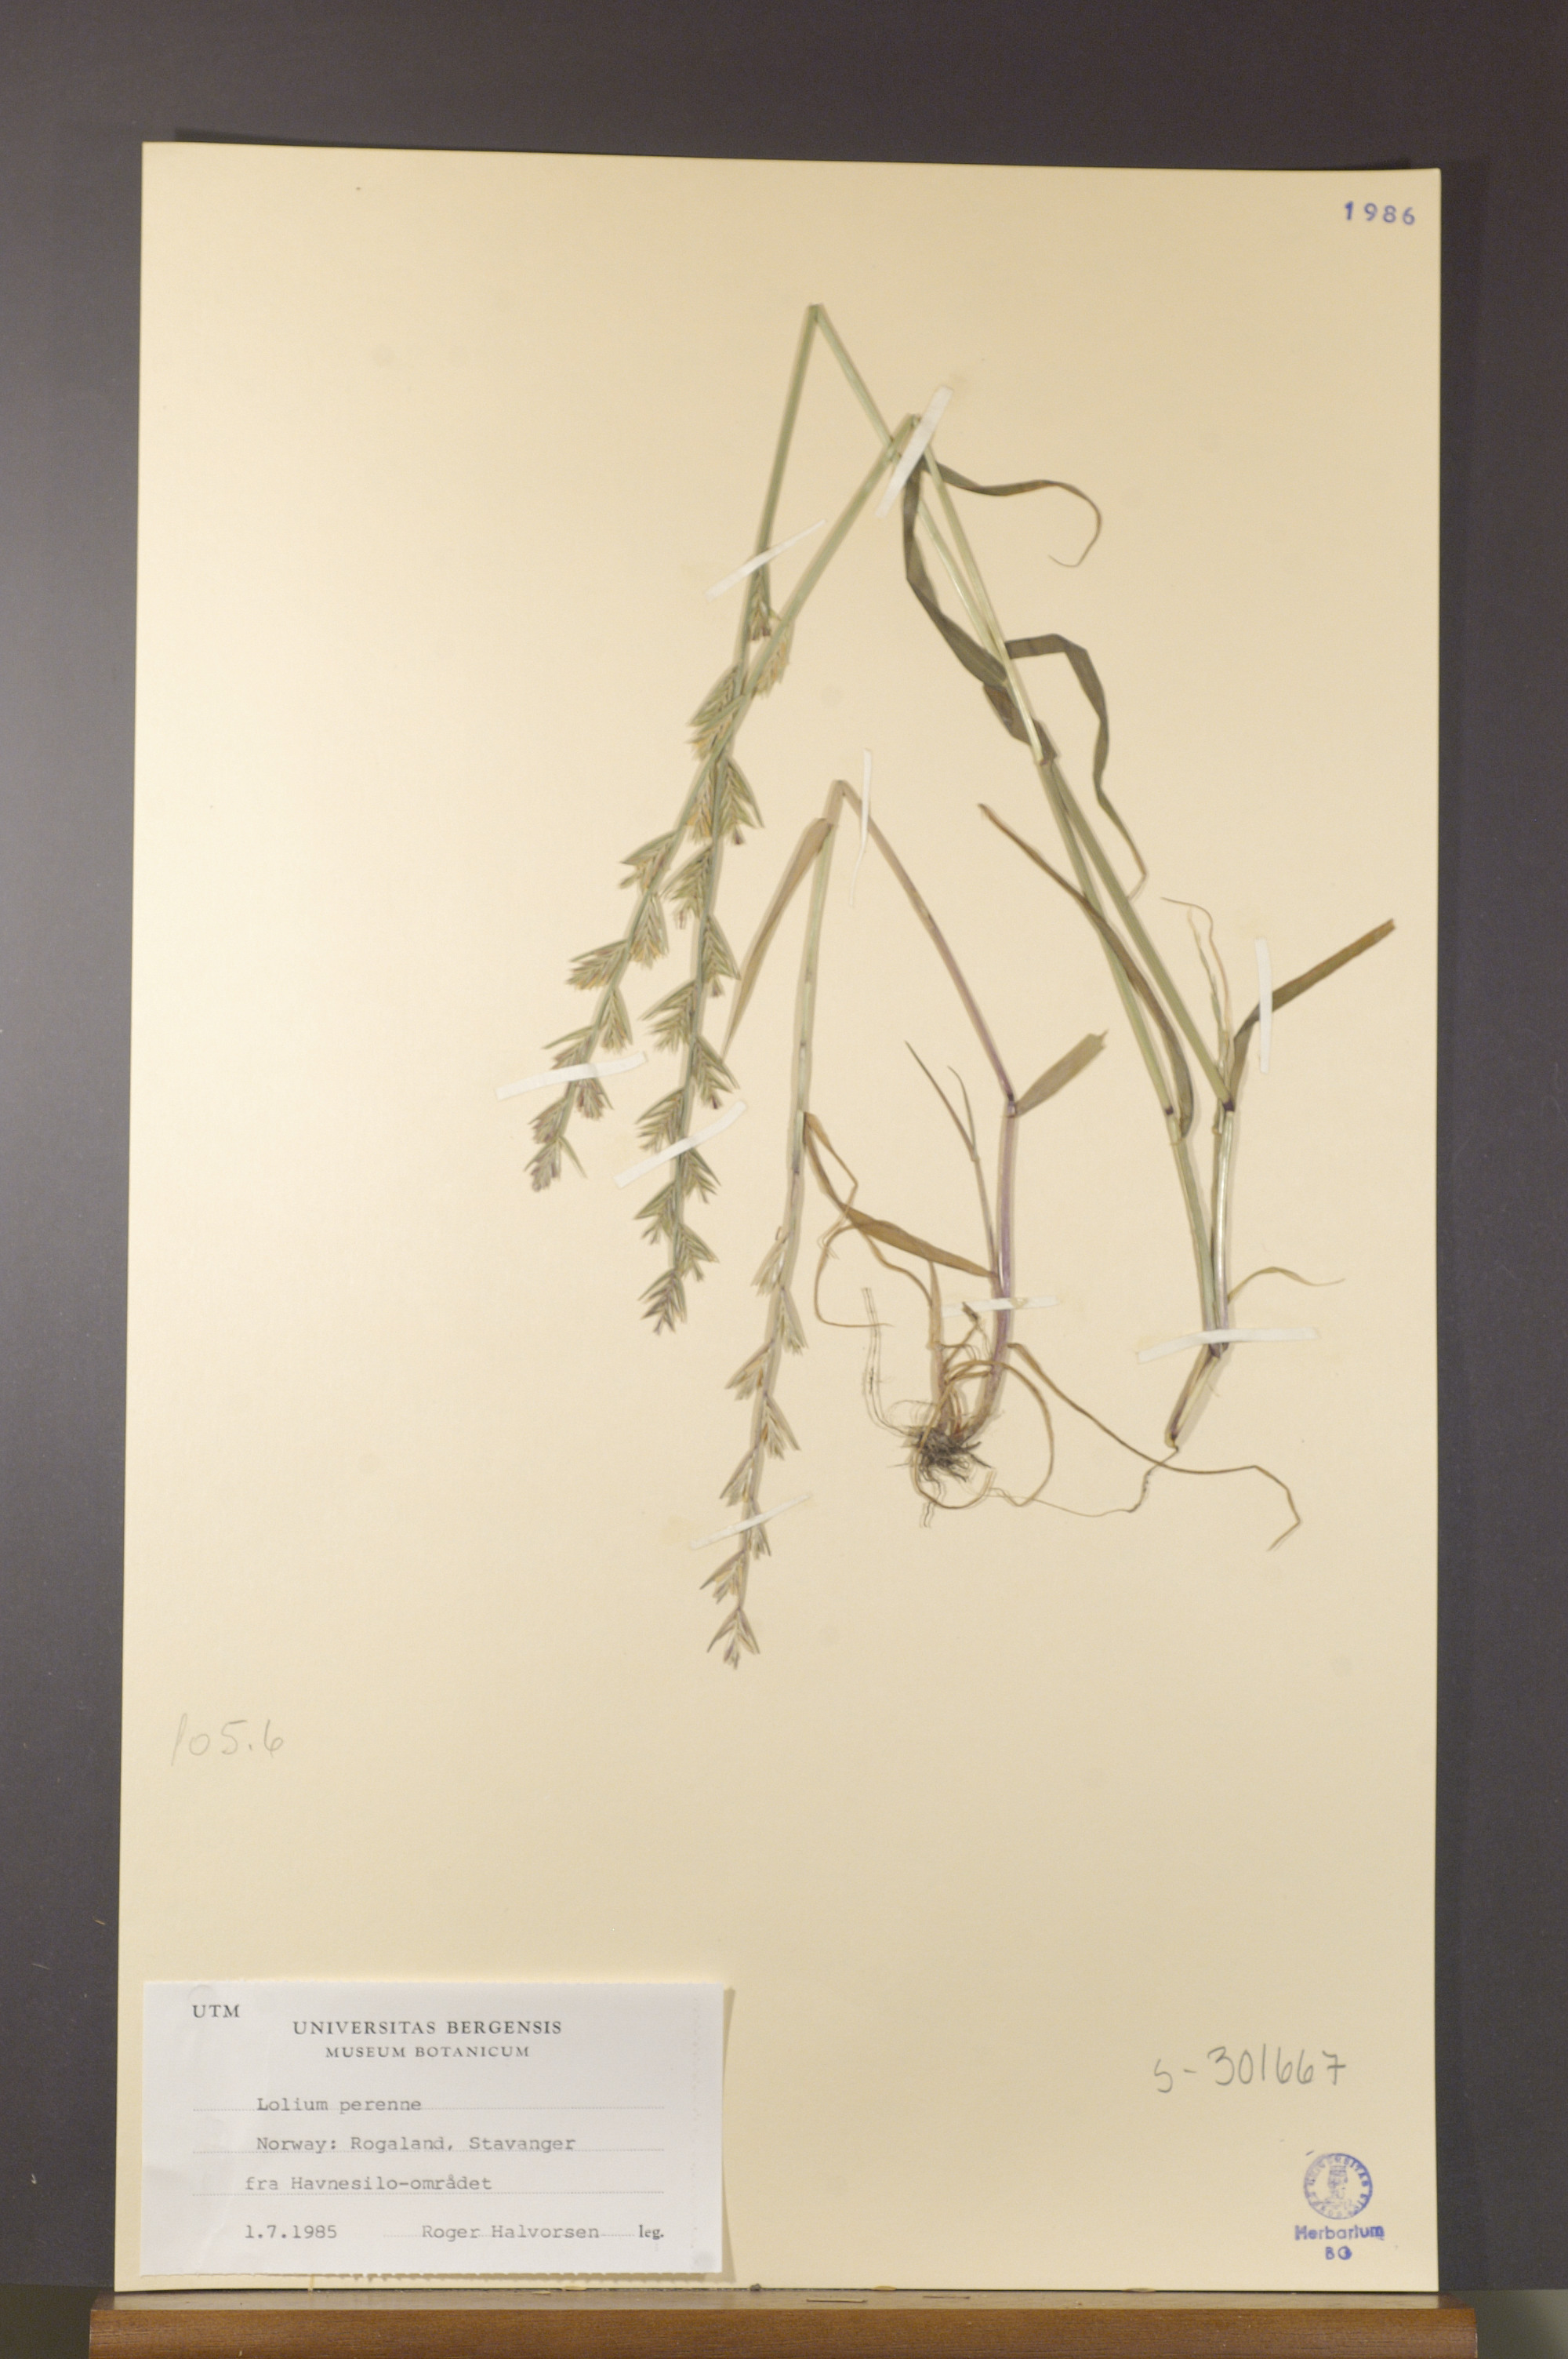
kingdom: Plantae
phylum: Tracheophyta
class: Liliopsida
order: Poales
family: Poaceae
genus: Lolium
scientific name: Lolium perenne
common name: Perennial ryegrass
